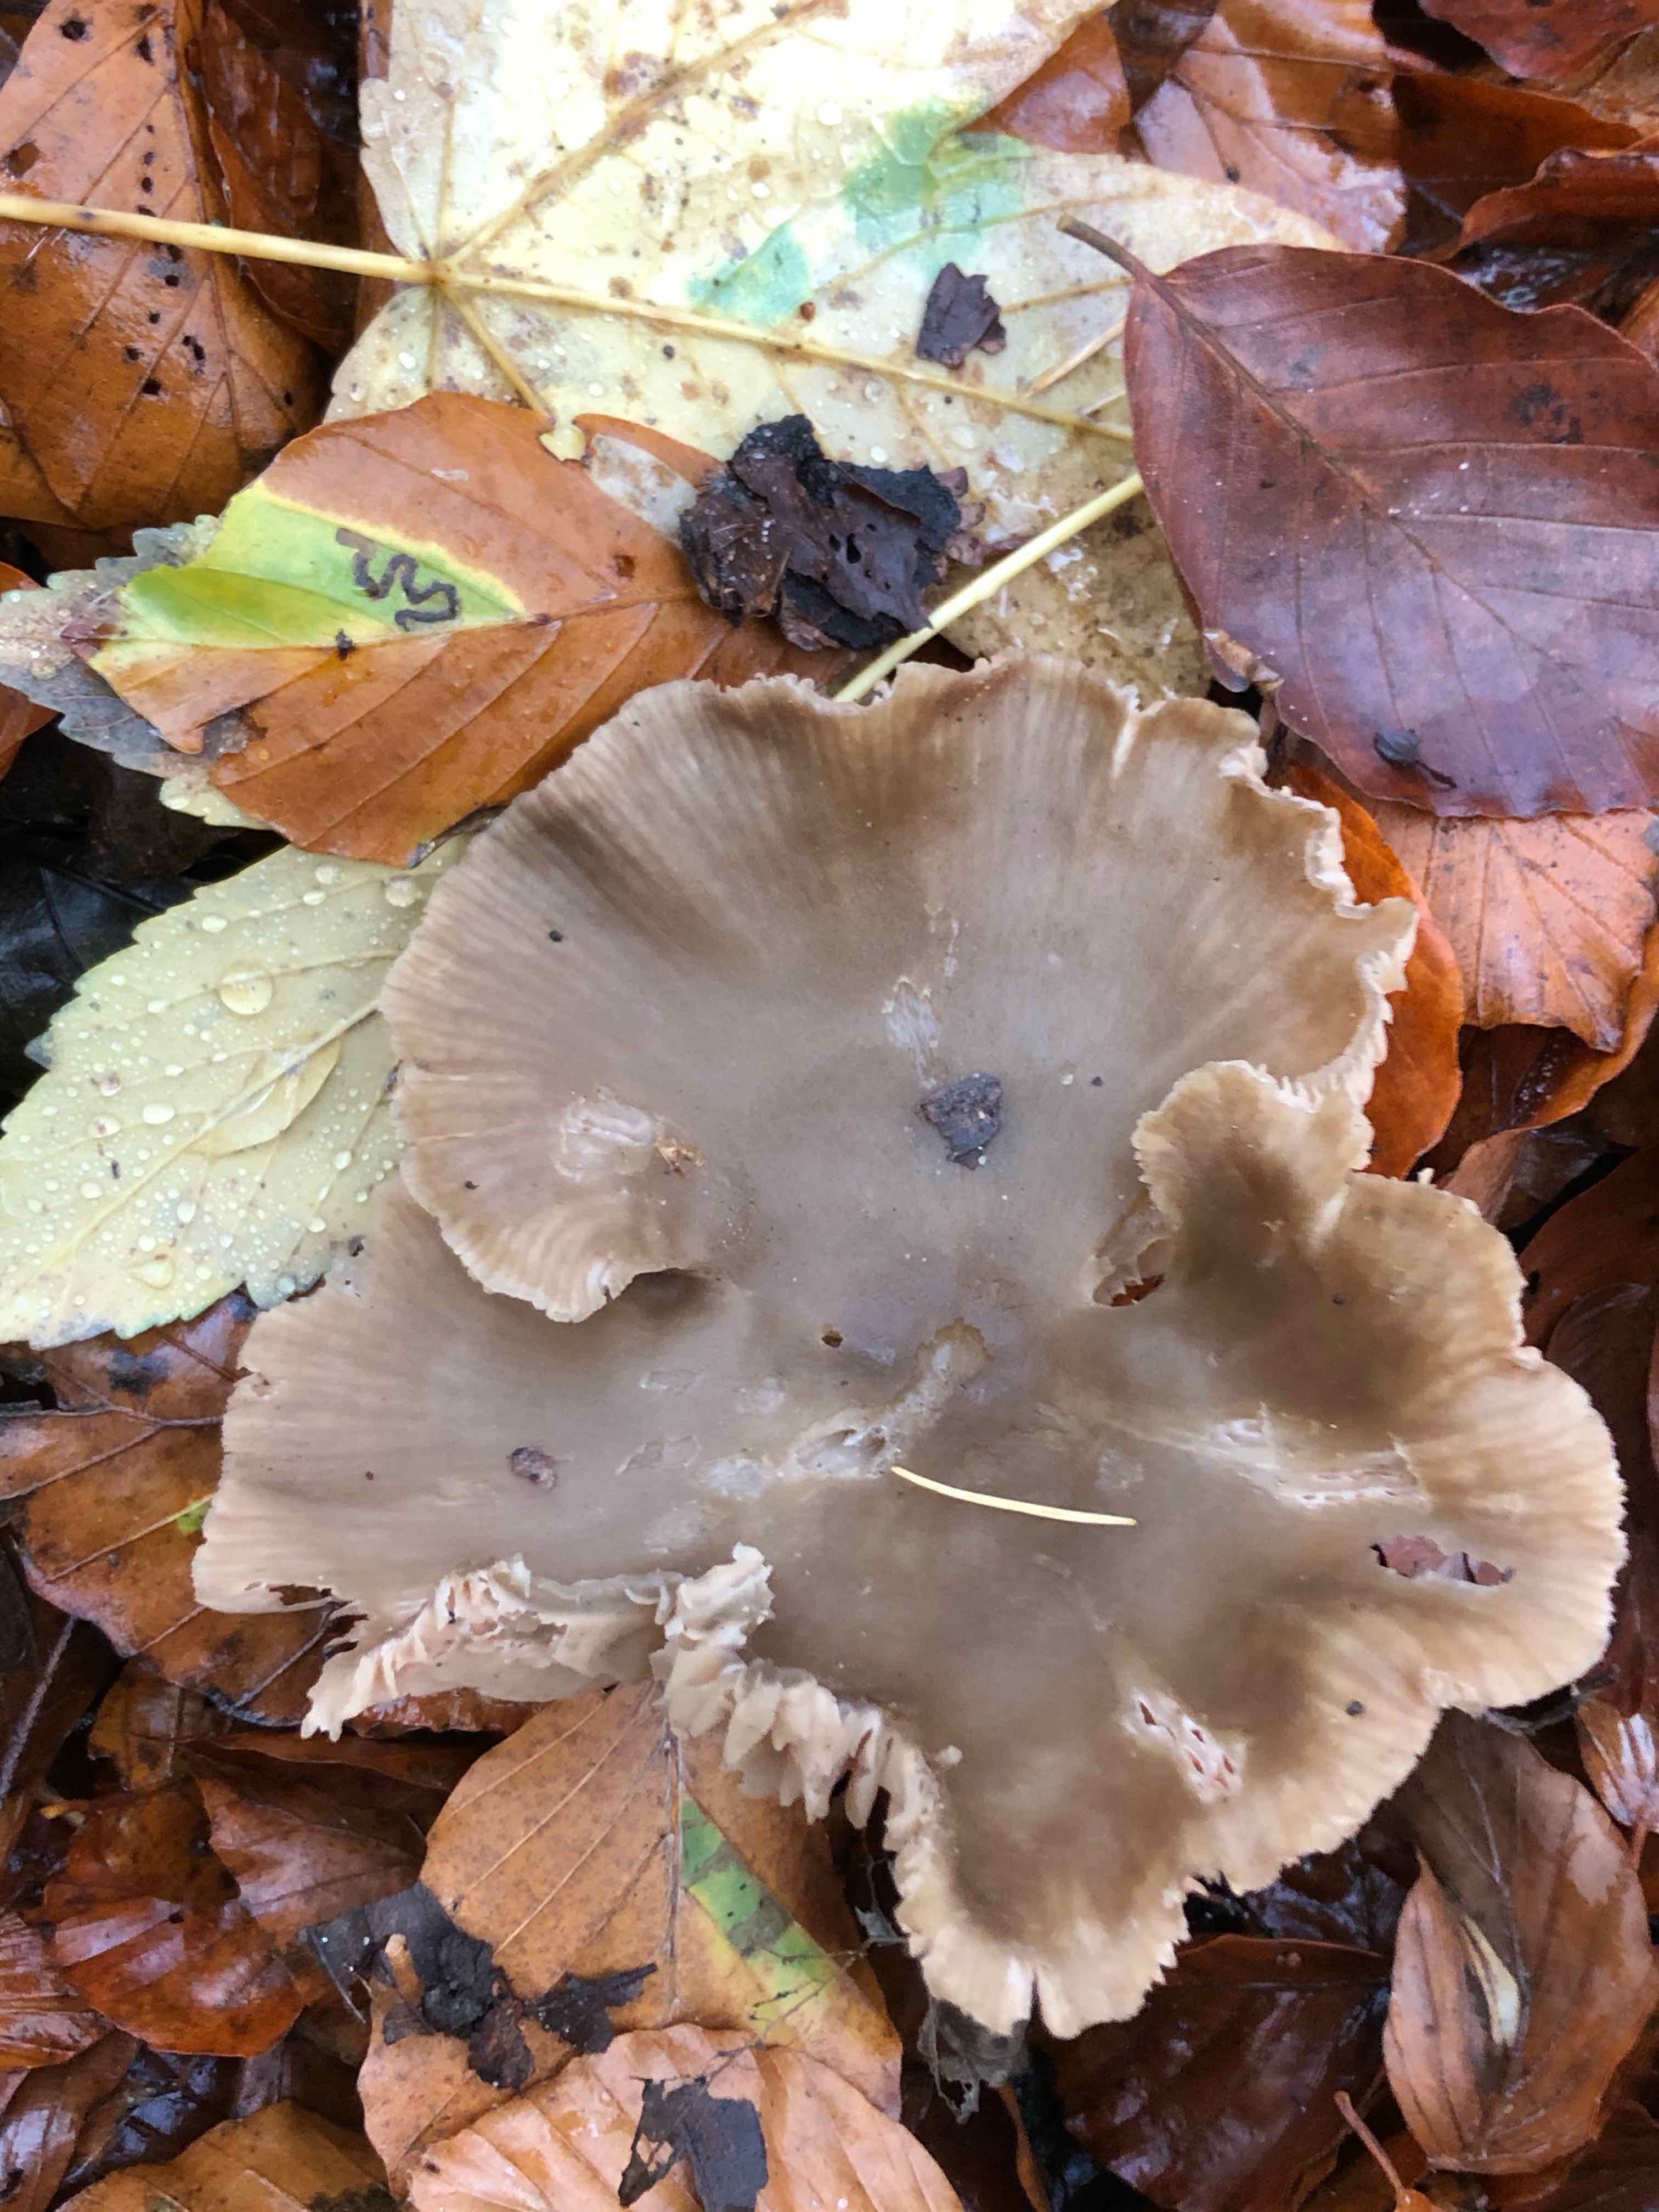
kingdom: Fungi
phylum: Basidiomycota
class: Agaricomycetes
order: Agaricales
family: Entolomataceae
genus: Entoloma
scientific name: Entoloma
